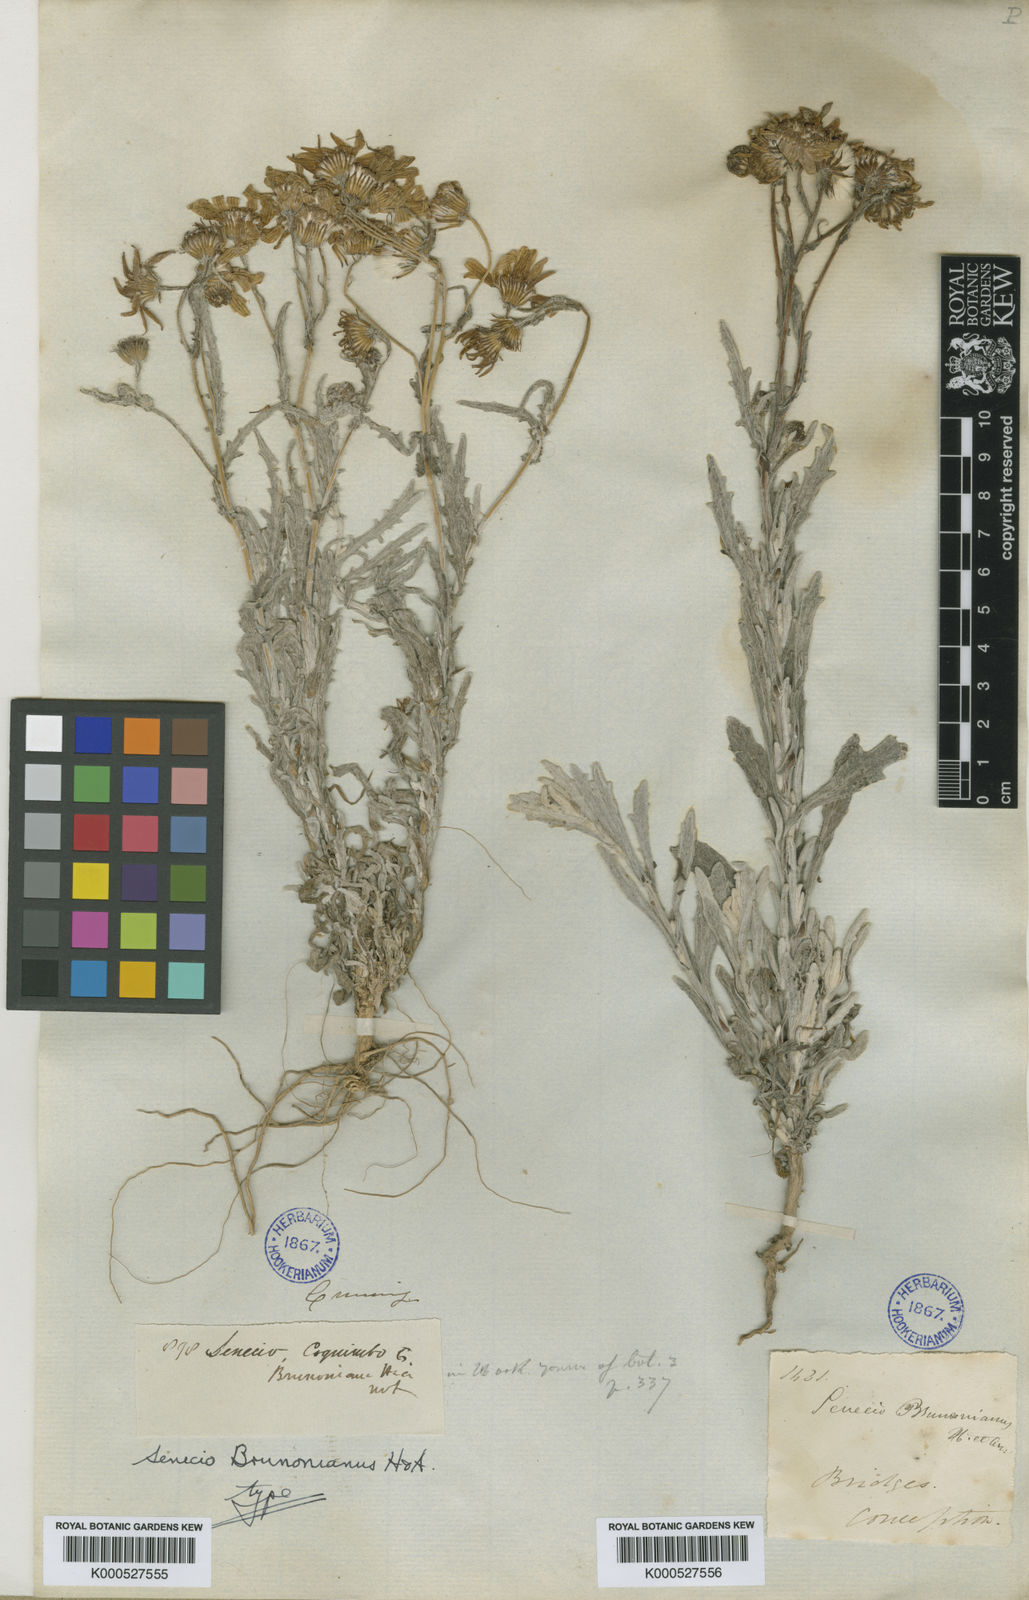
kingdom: Plantae
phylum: Tracheophyta
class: Magnoliopsida
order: Asterales
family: Asteraceae
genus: Senecio
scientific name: Senecio brunonianus
